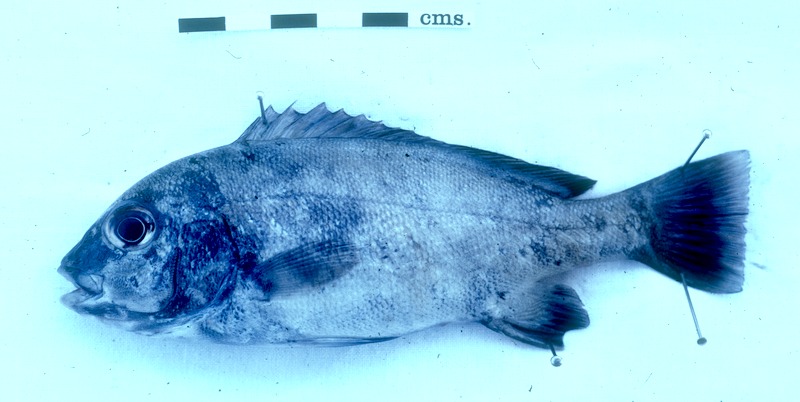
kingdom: Animalia
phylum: Chordata
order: Perciformes
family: Haemulidae
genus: Plectorhinchus
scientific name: Plectorhinchus flavomaculatus
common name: Netted sweetlips
